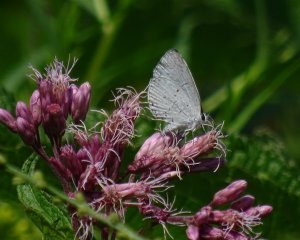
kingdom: Animalia
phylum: Arthropoda
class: Insecta
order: Lepidoptera
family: Lycaenidae
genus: Cyaniris
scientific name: Cyaniris neglecta
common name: Summer Azure
